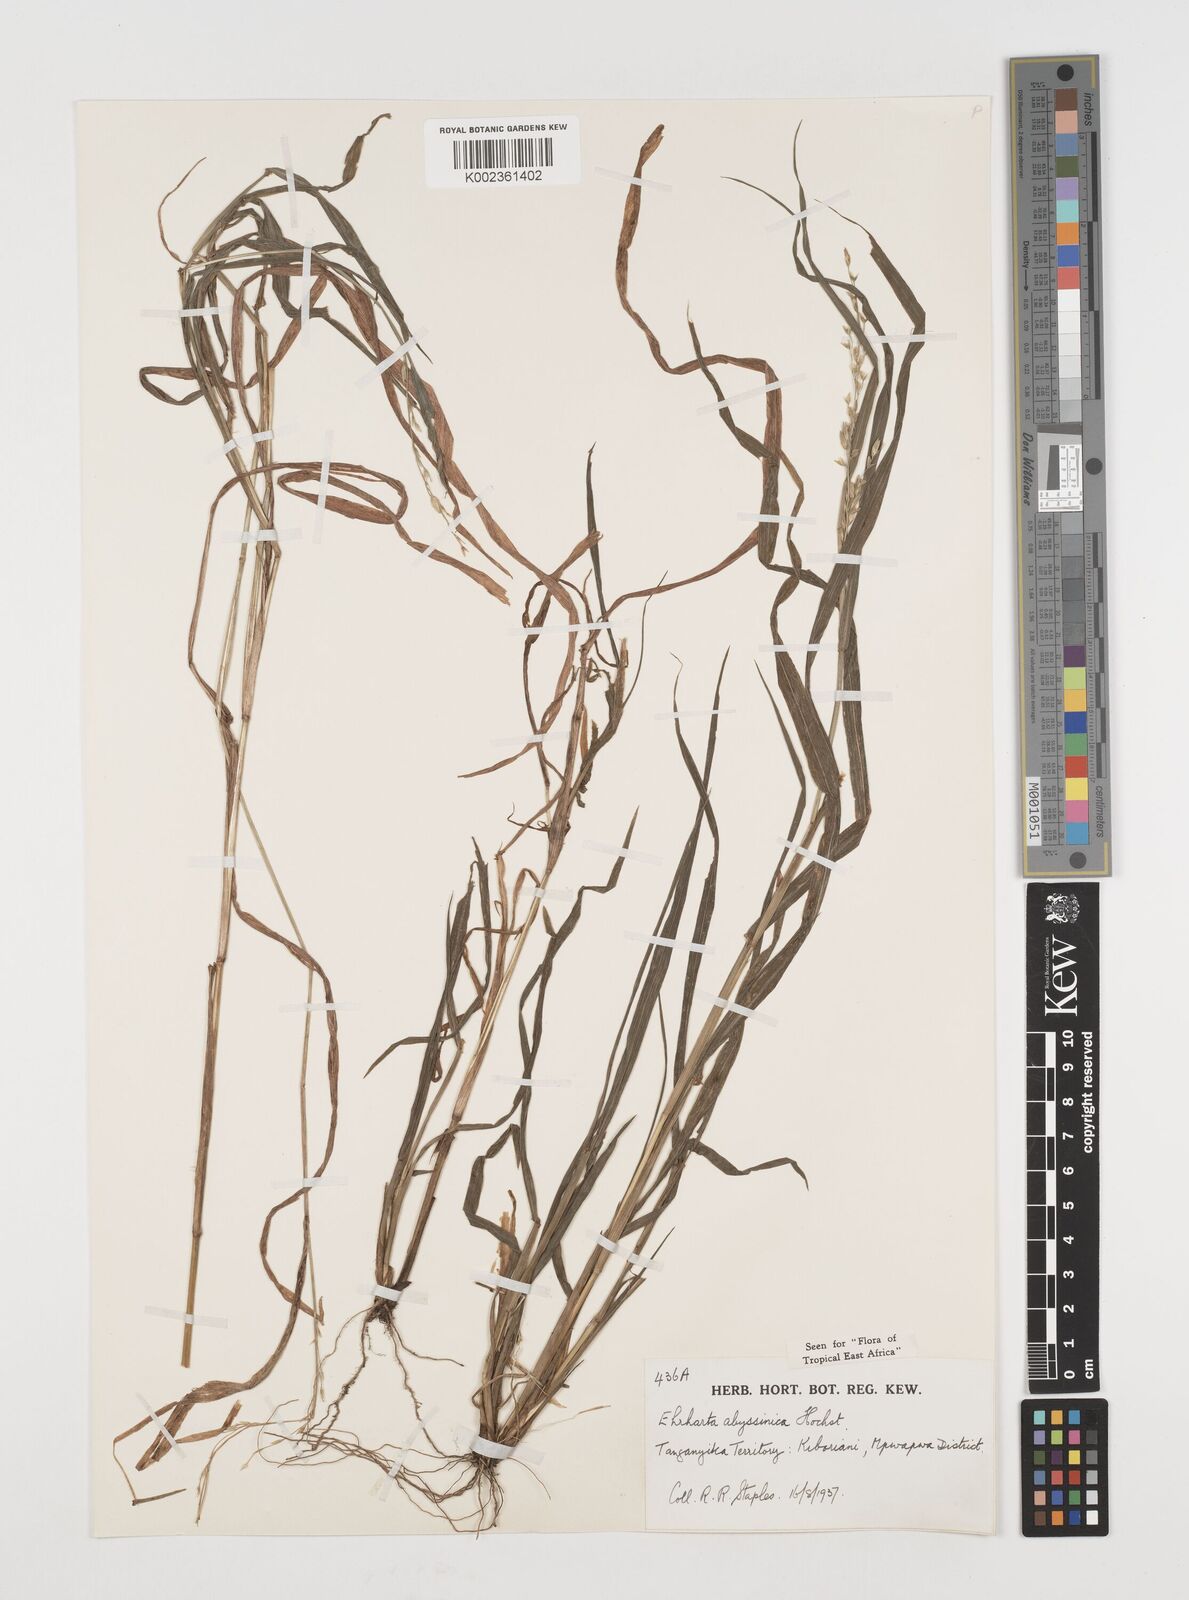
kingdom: Plantae
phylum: Tracheophyta
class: Liliopsida
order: Poales
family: Poaceae
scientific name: Poaceae
